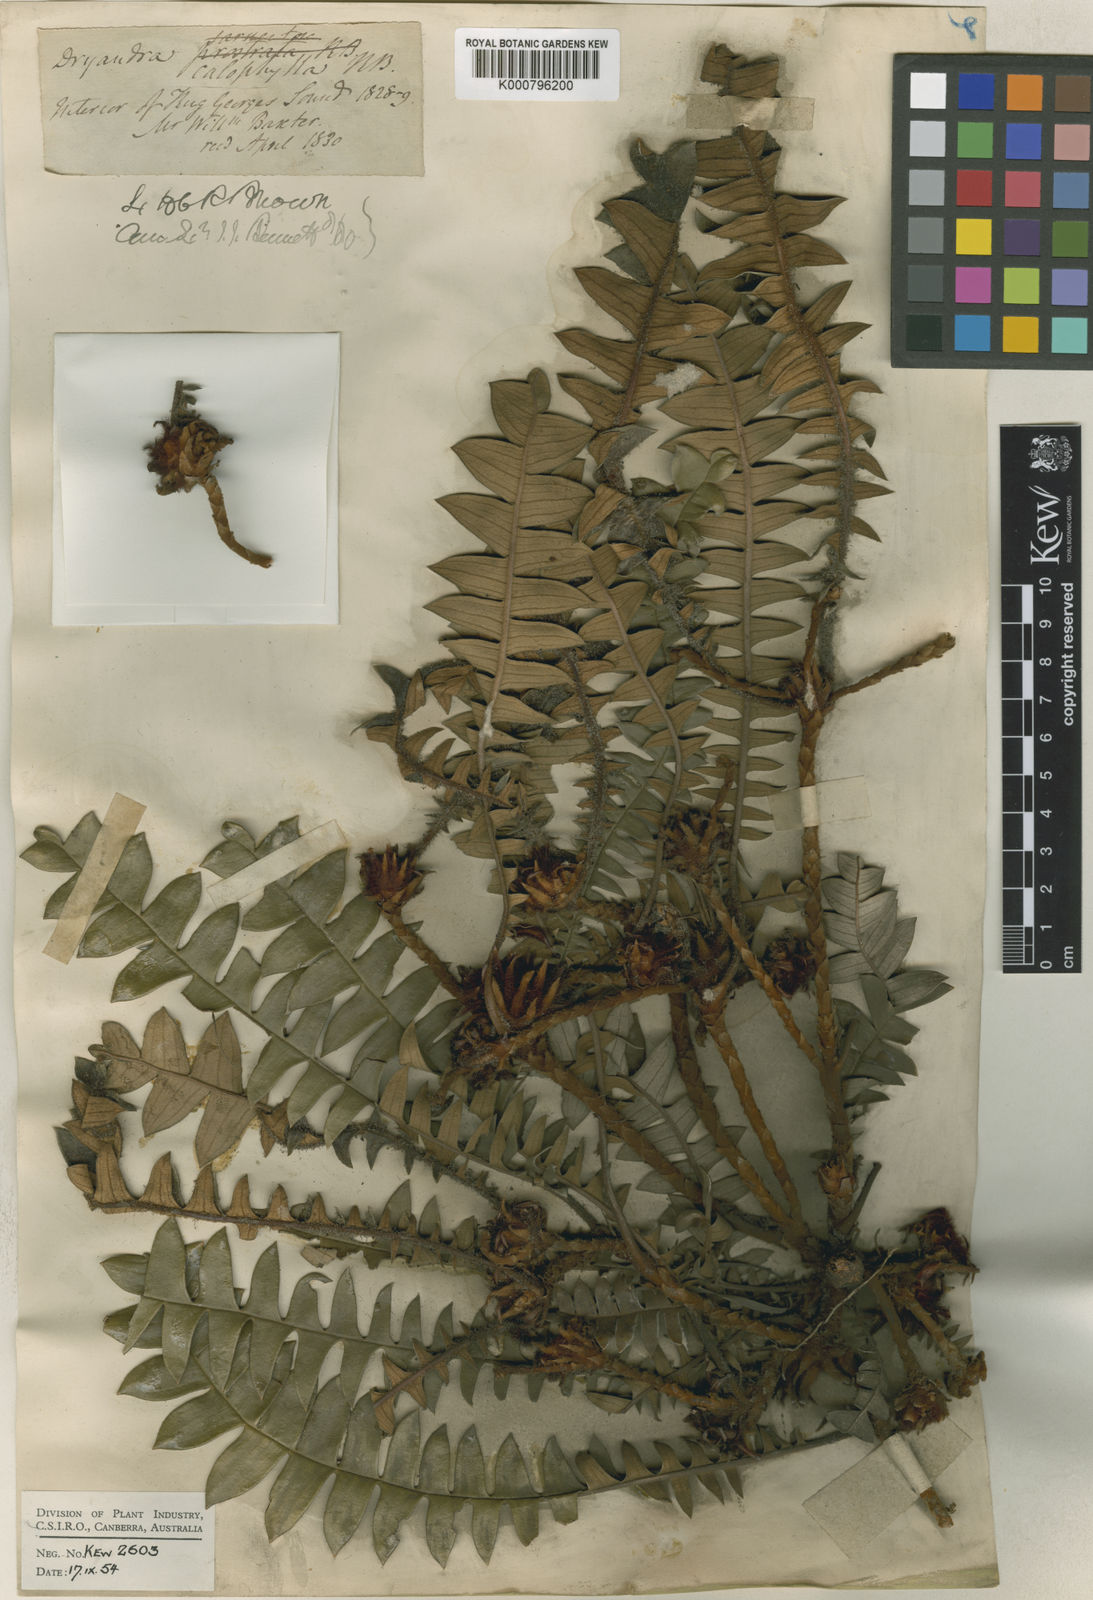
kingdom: Plantae
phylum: Tracheophyta
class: Magnoliopsida
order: Proteales
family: Proteaceae
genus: Banksia
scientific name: Banksia calophylla
